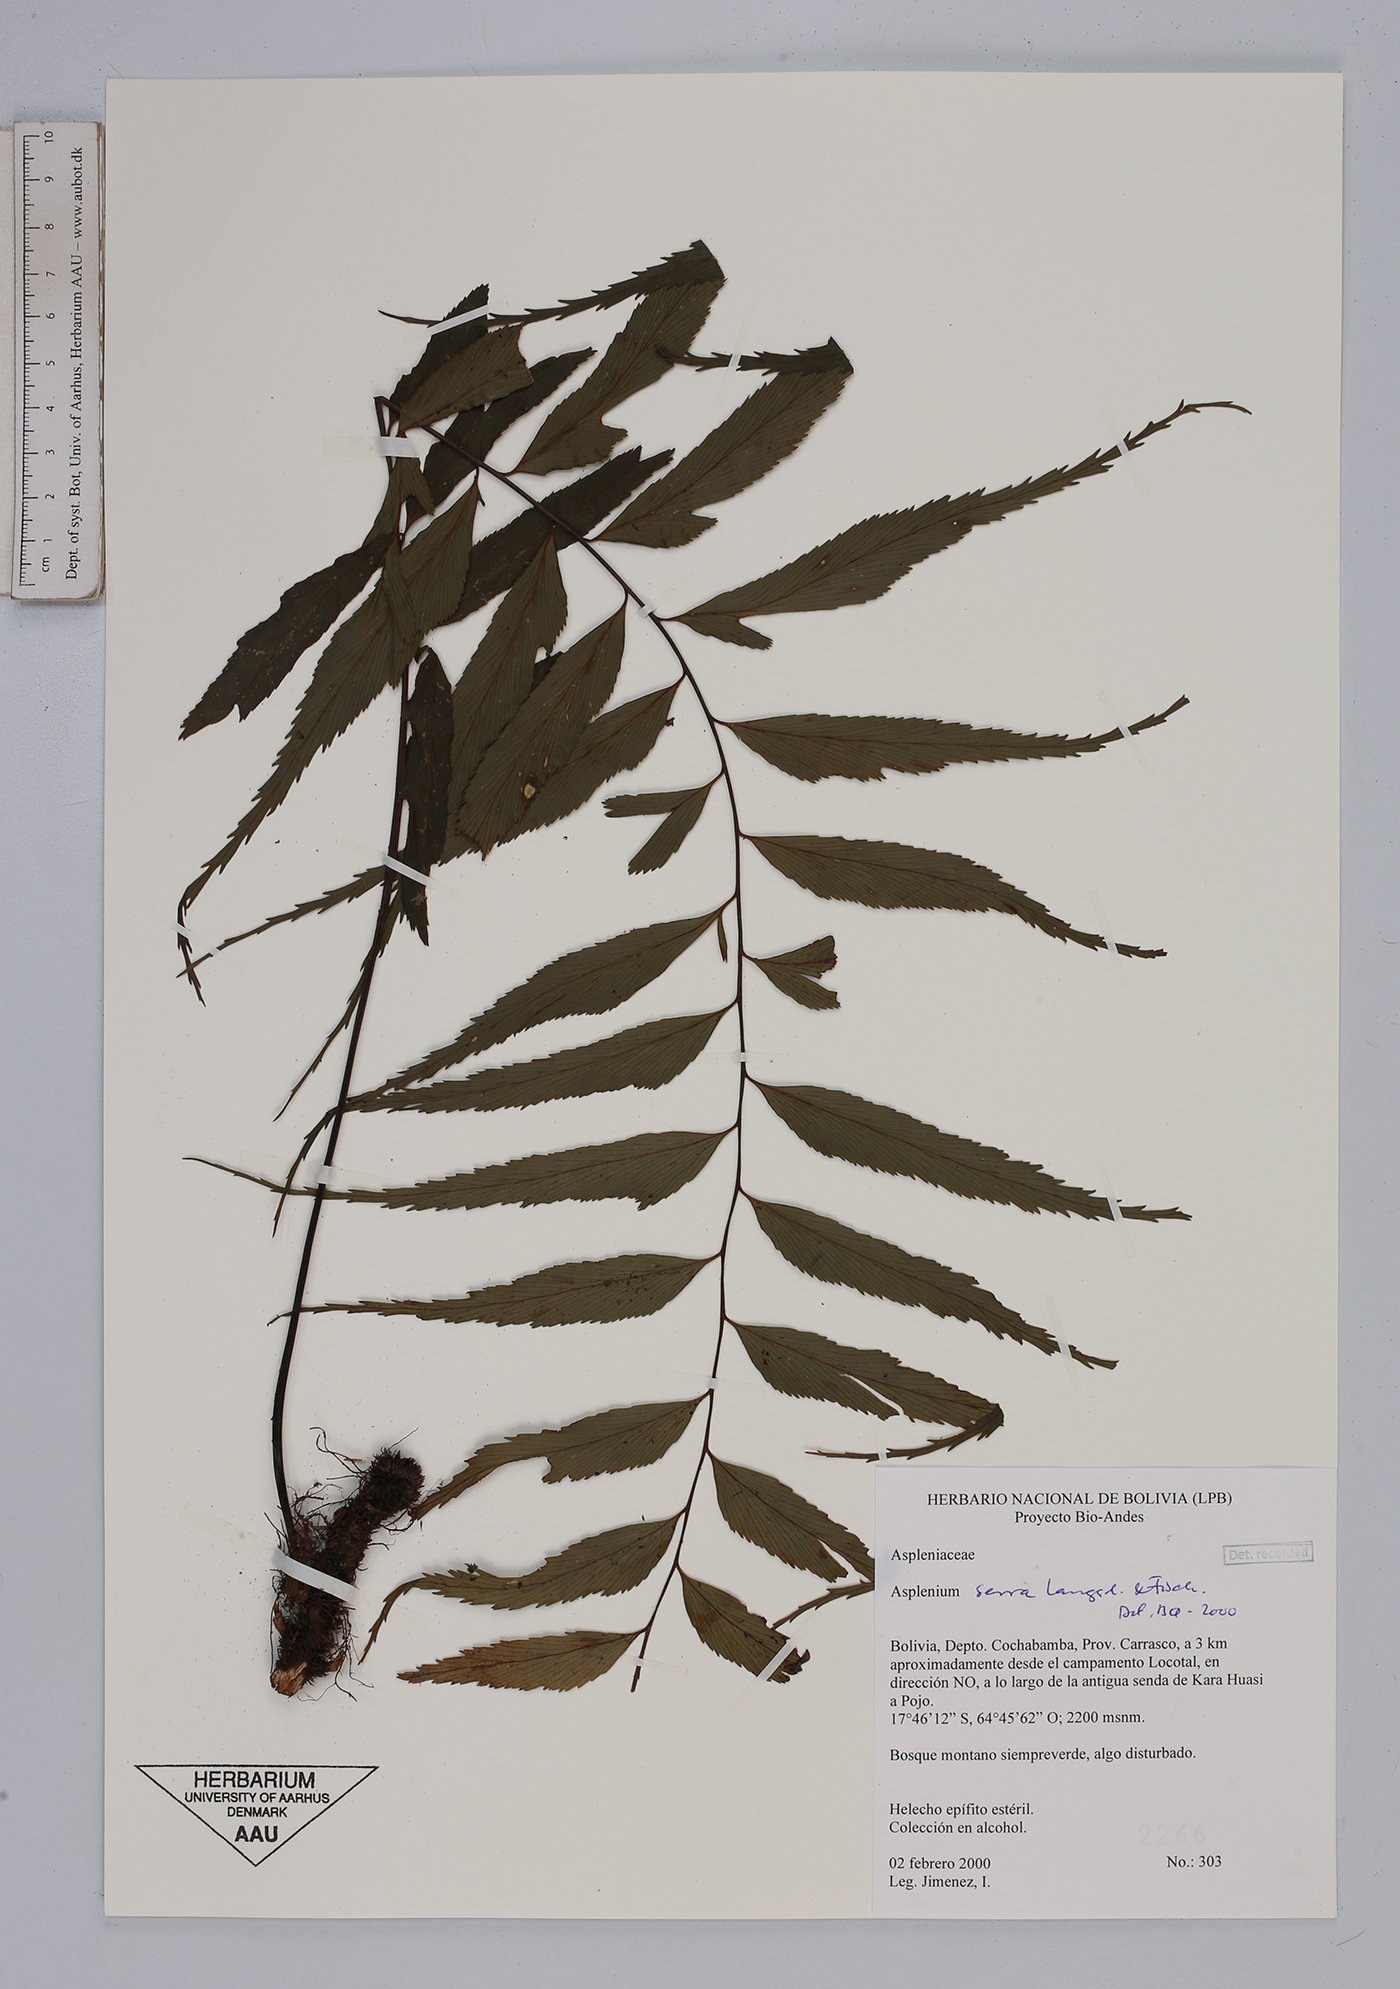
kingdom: Plantae
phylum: Tracheophyta
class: Polypodiopsida
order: Polypodiales
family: Aspleniaceae
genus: Asplenium
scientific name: Asplenium serra
